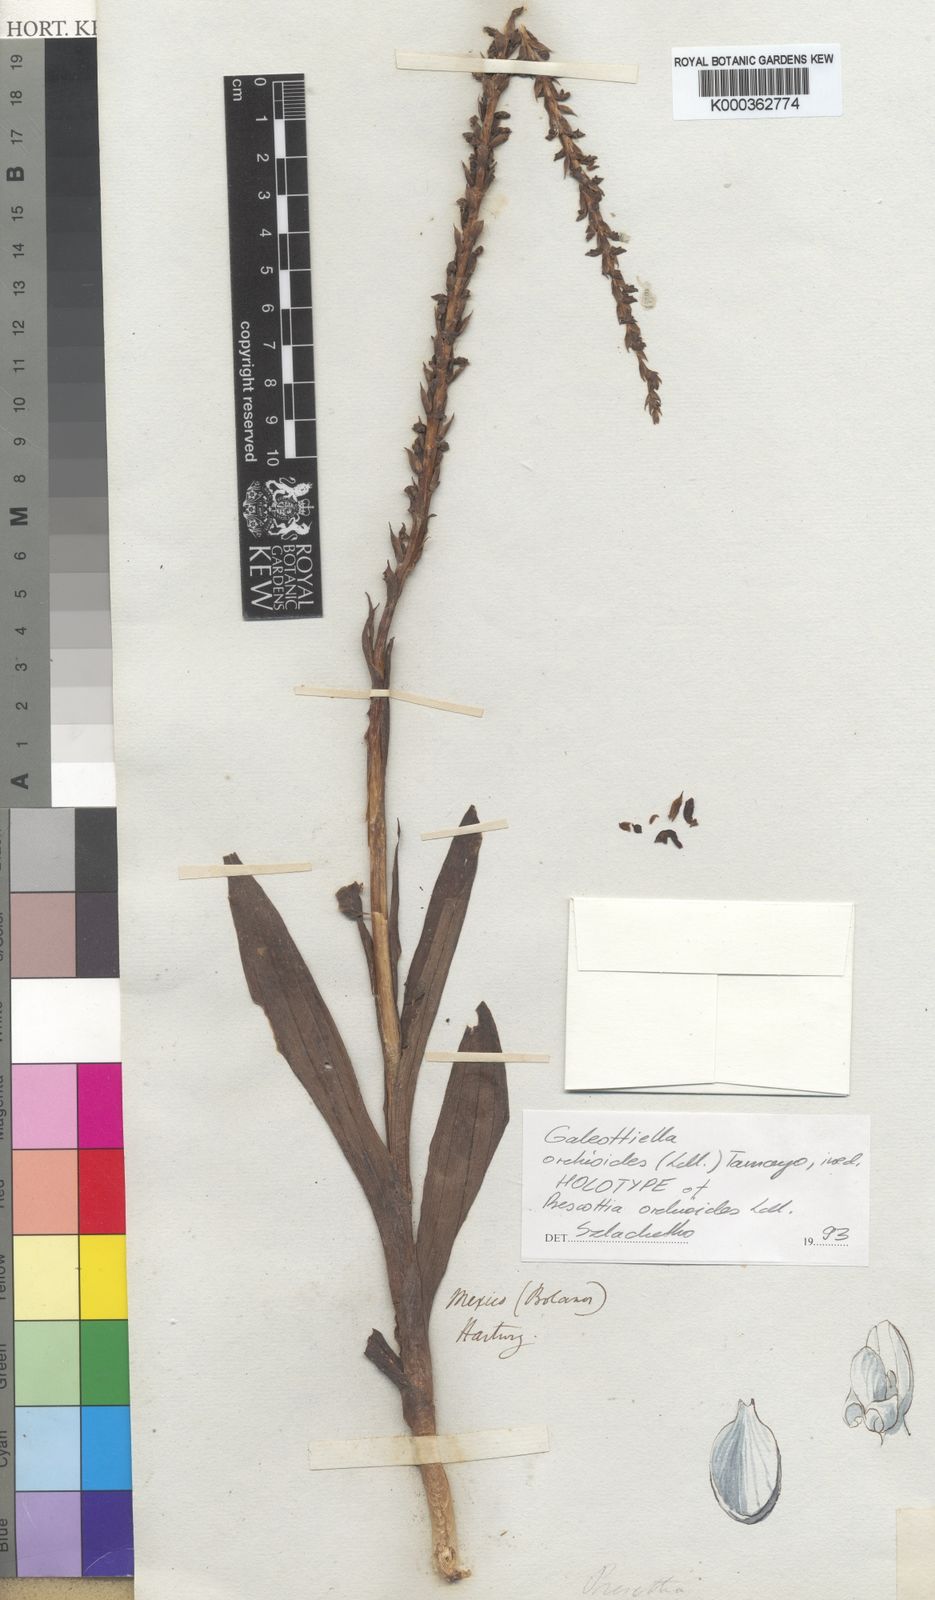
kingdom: Plantae
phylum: Tracheophyta
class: Liliopsida
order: Asparagales
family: Orchidaceae
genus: Galeottiella
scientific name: Galeottiella orchioides
